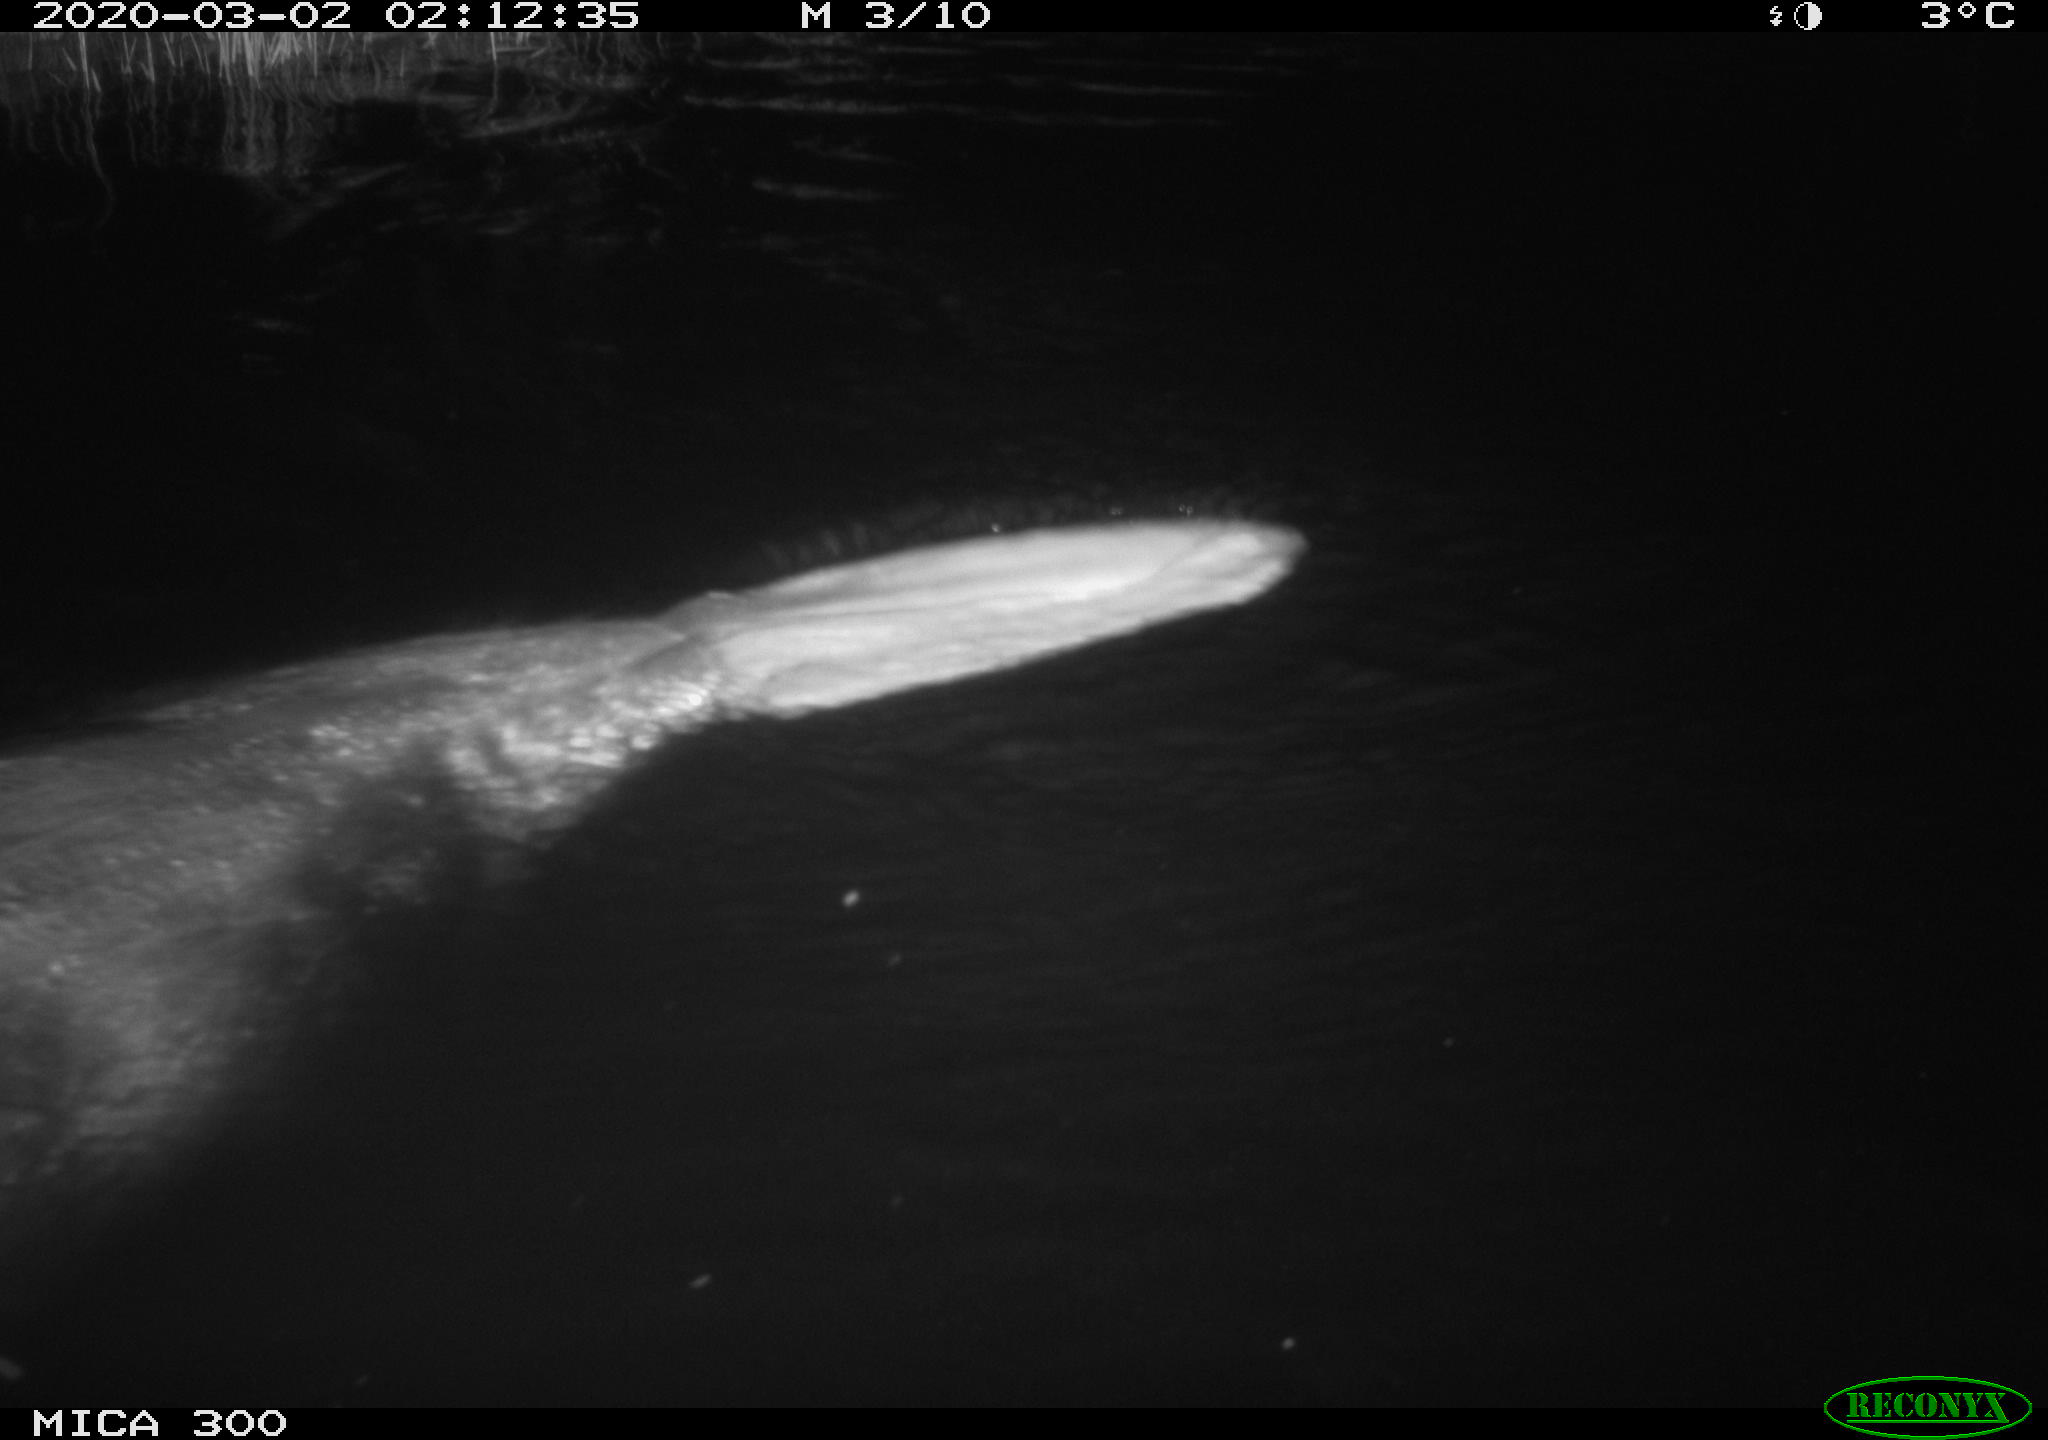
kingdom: Animalia
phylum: Chordata
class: Mammalia
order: Rodentia
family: Castoridae
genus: Castor
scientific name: Castor fiber
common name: Eurasian beaver
